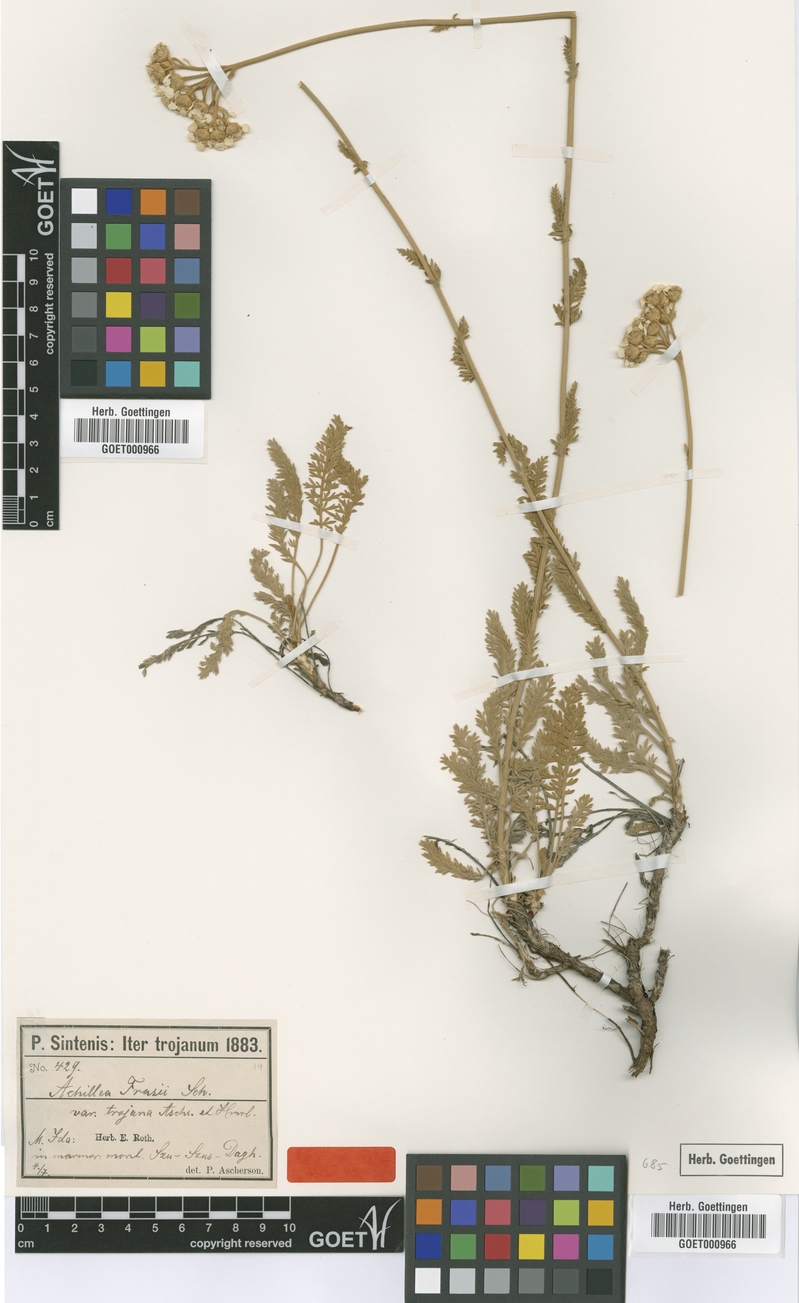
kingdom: Plantae
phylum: Tracheophyta
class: Magnoliopsida
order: Asterales
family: Asteraceae
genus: Achillea
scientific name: Achillea fraasii
